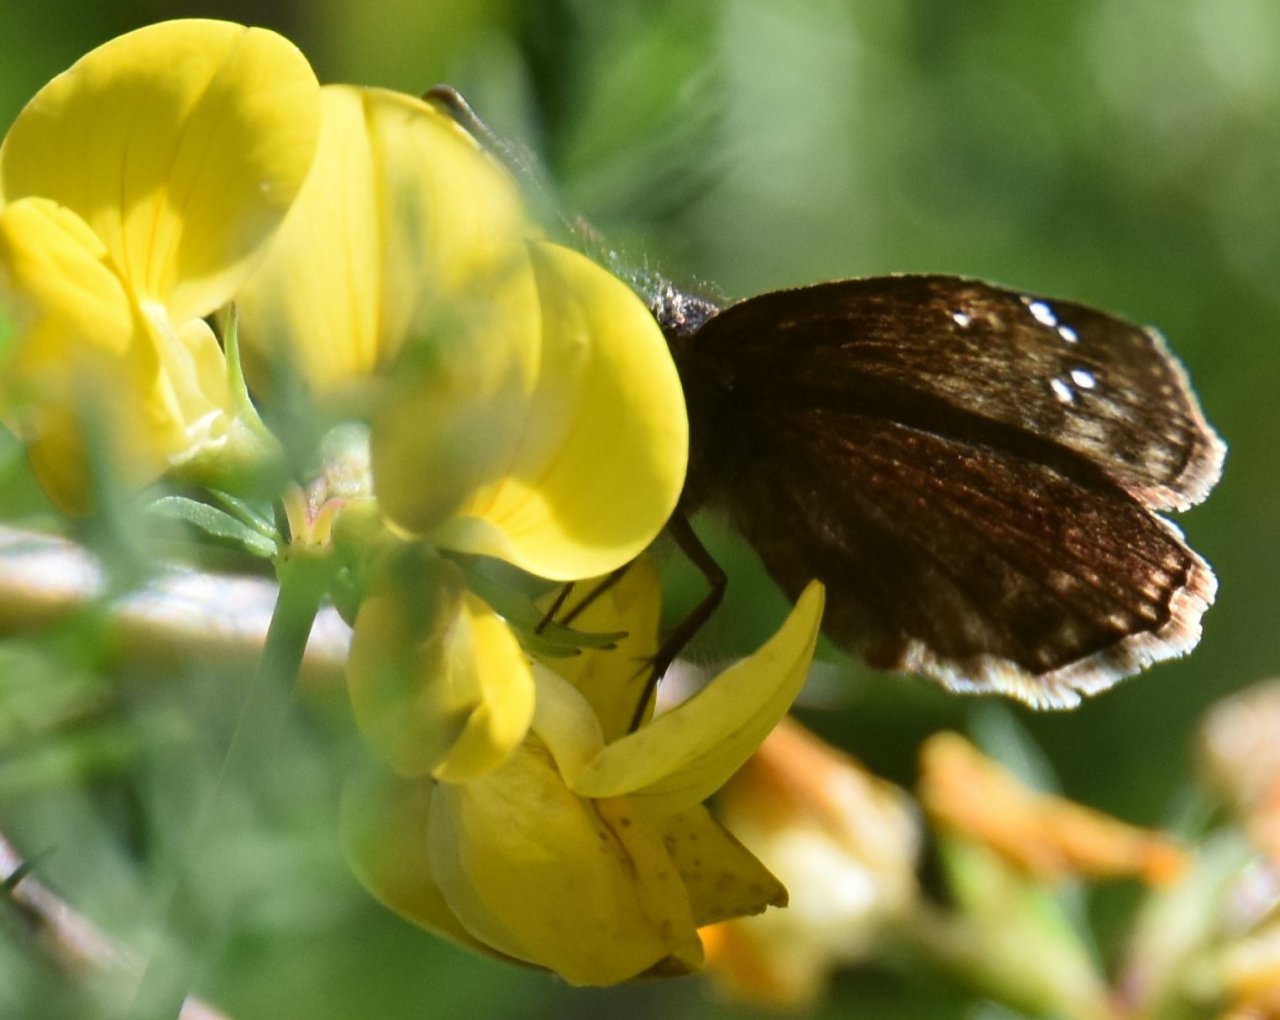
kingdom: Animalia
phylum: Arthropoda
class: Insecta
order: Lepidoptera
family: Hesperiidae
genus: Gesta
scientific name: Gesta
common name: Wild Indigo Duskywing
